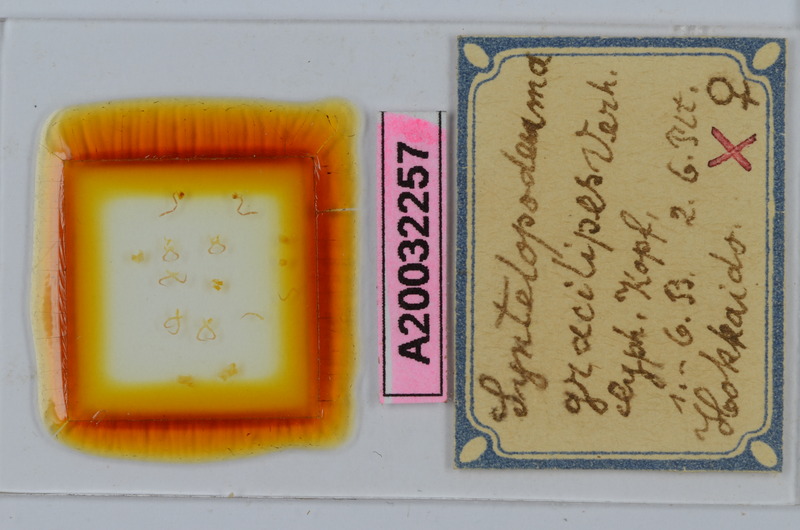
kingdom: Animalia
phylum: Arthropoda
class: Diplopoda
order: Chordeumatida
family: Diplomaragnidae
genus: Diplomaragna
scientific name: Diplomaragna gracilipes
